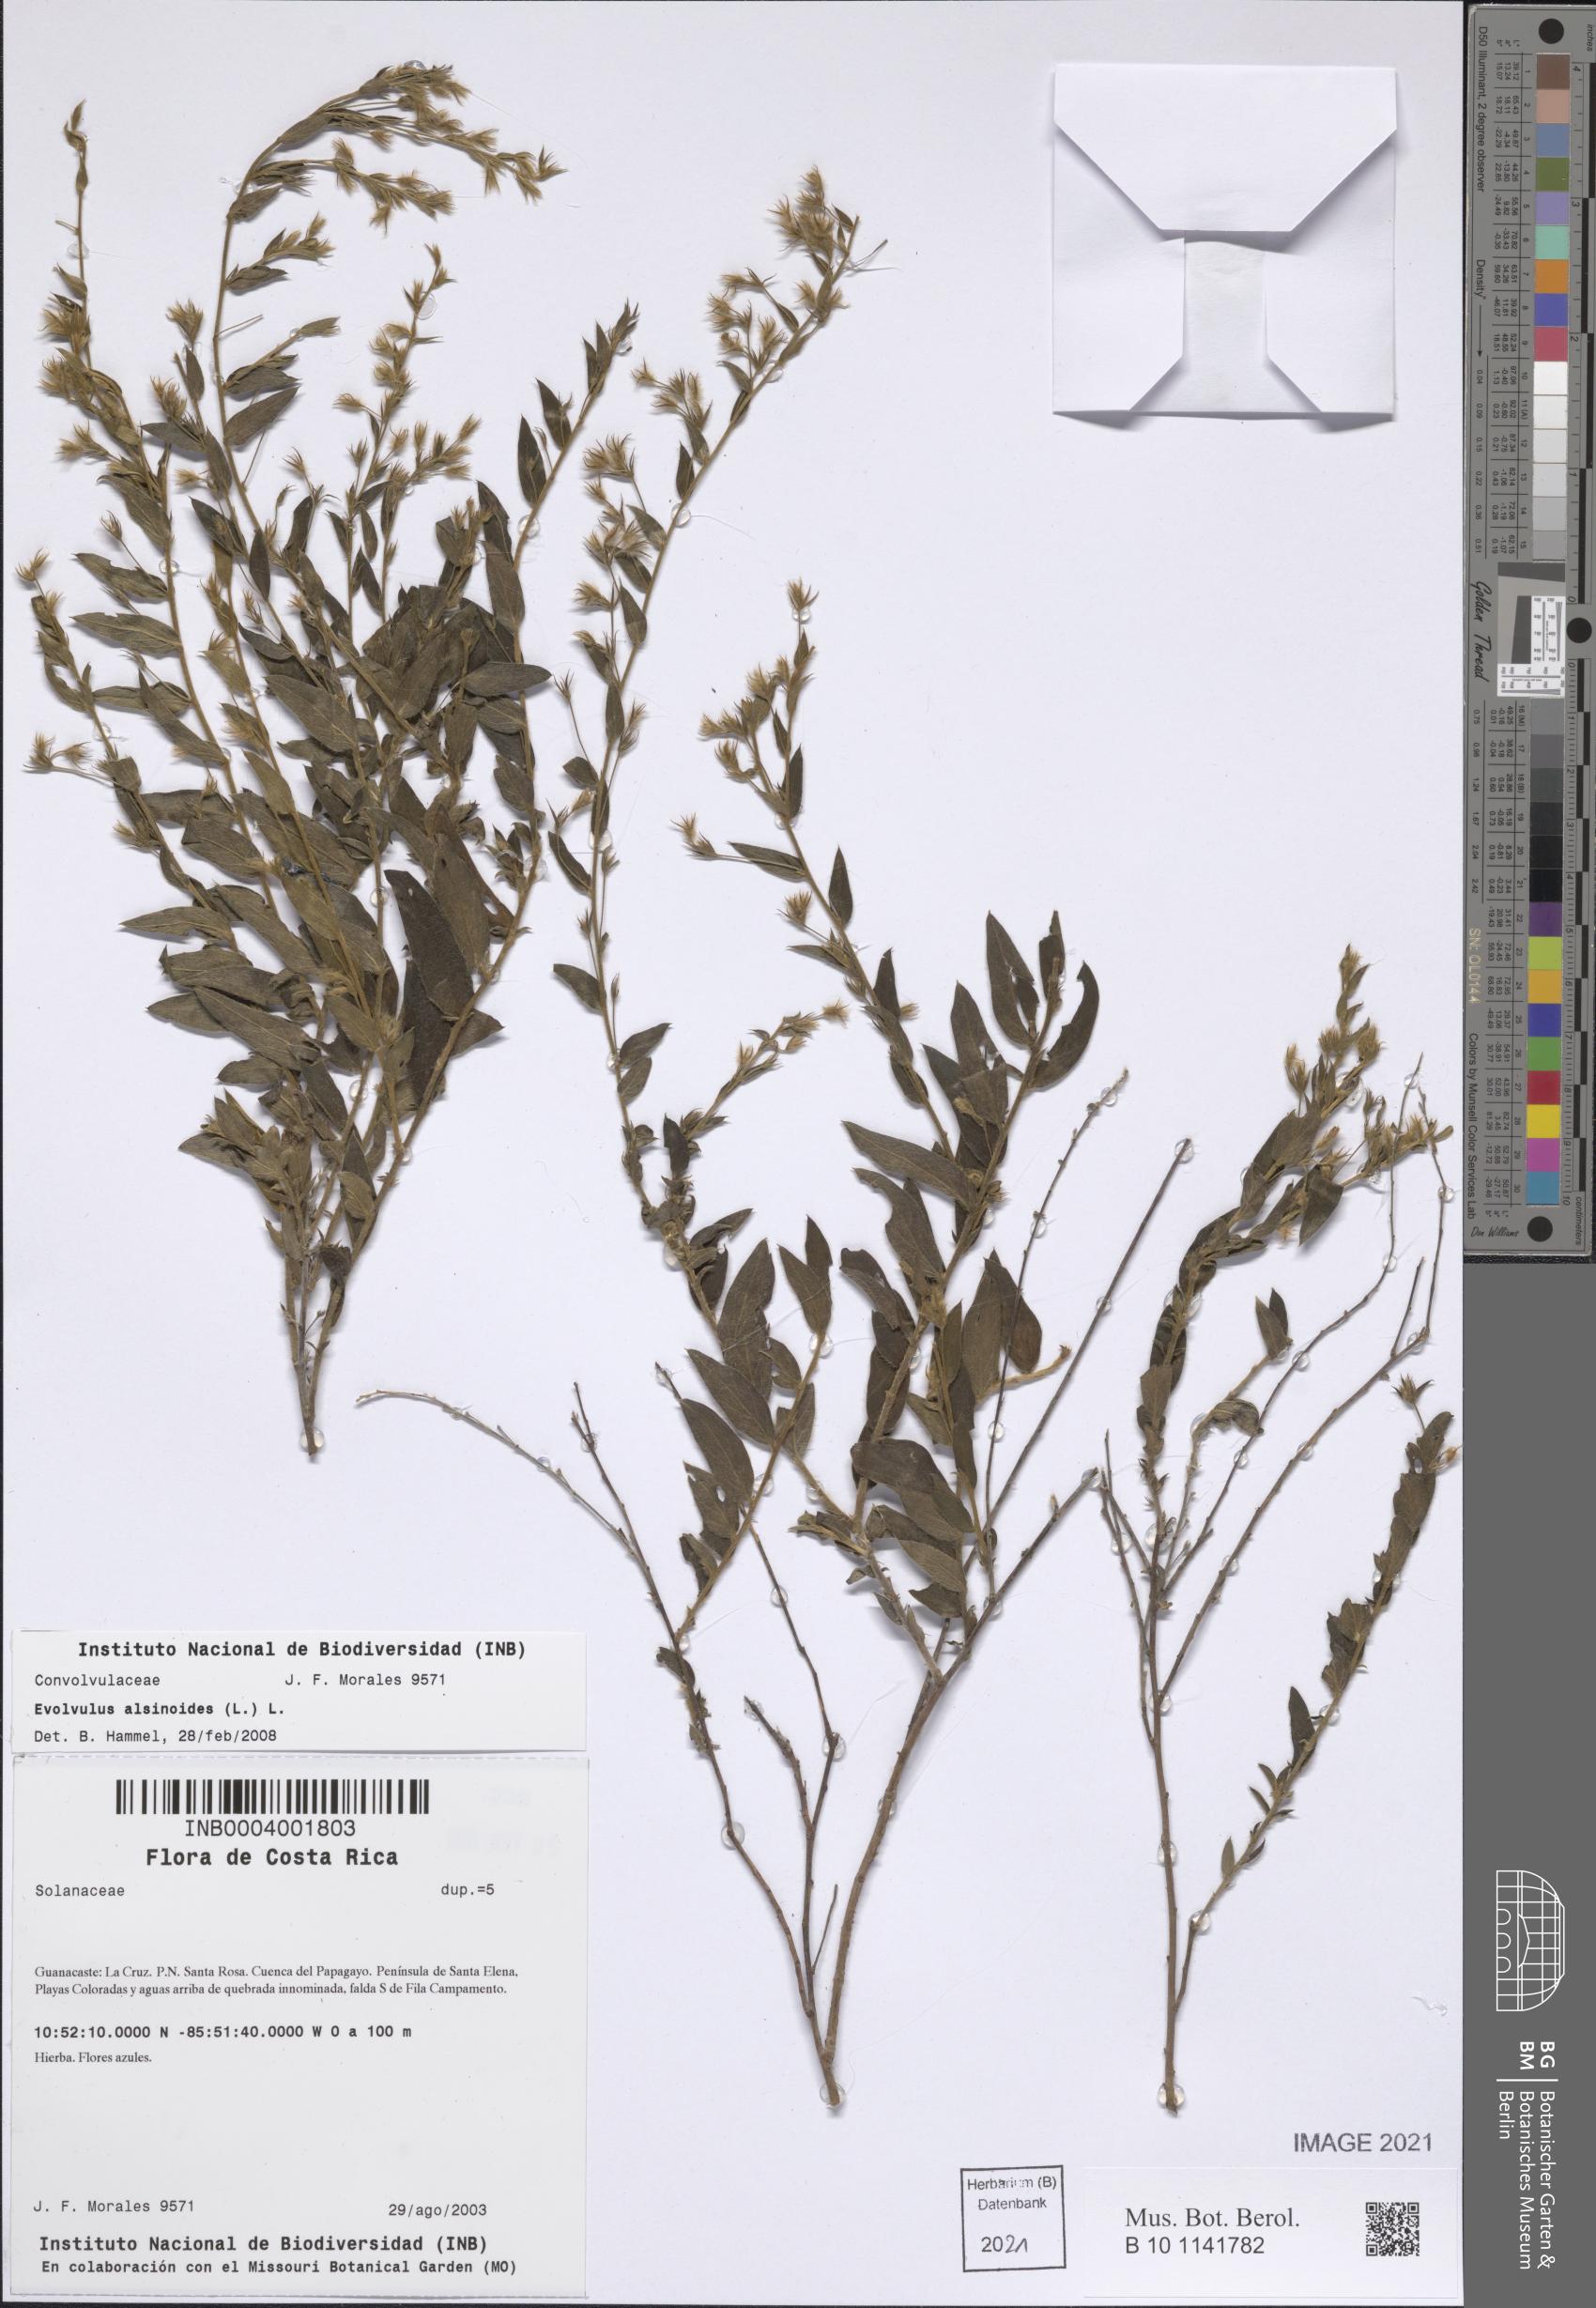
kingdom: Plantae
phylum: Tracheophyta
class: Magnoliopsida
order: Solanales
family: Convolvulaceae
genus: Evolvulus
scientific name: Evolvulus alsinoides
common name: Slender dwarf morning-glory
